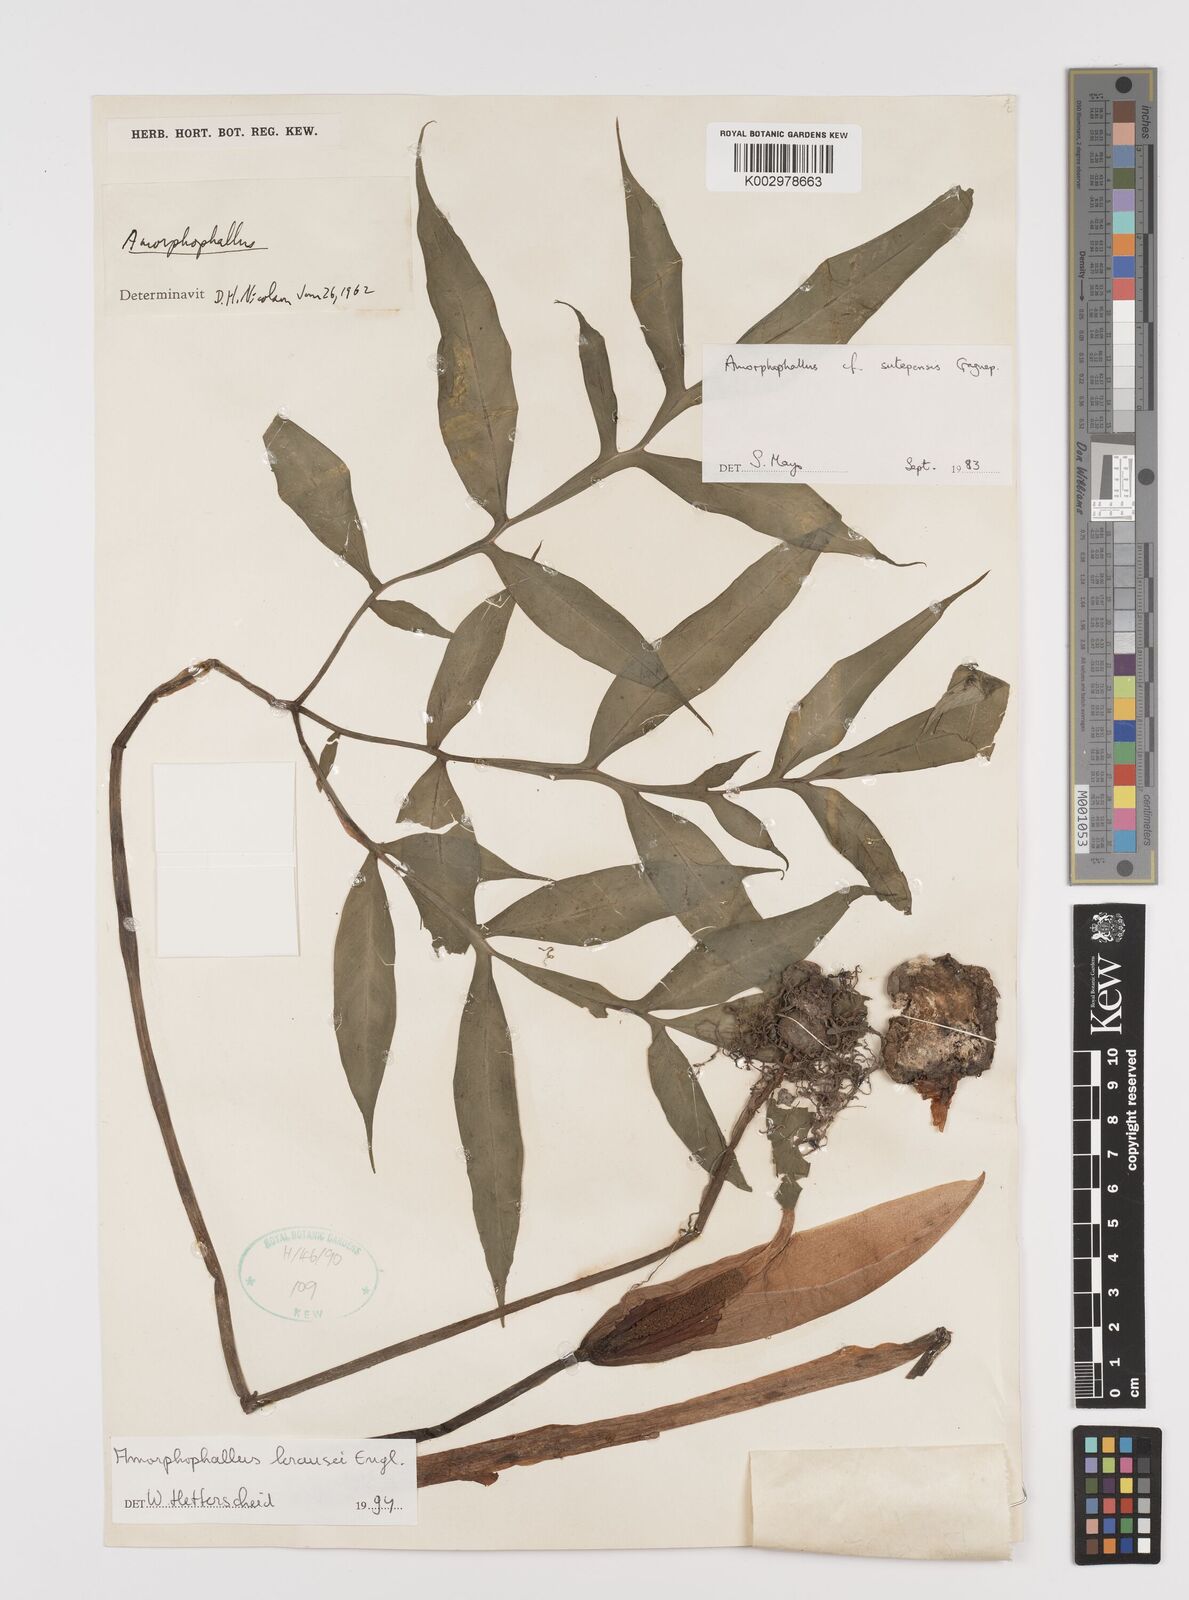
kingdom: Plantae
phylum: Tracheophyta
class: Liliopsida
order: Alismatales
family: Araceae
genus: Amorphophallus
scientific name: Amorphophallus krausei
